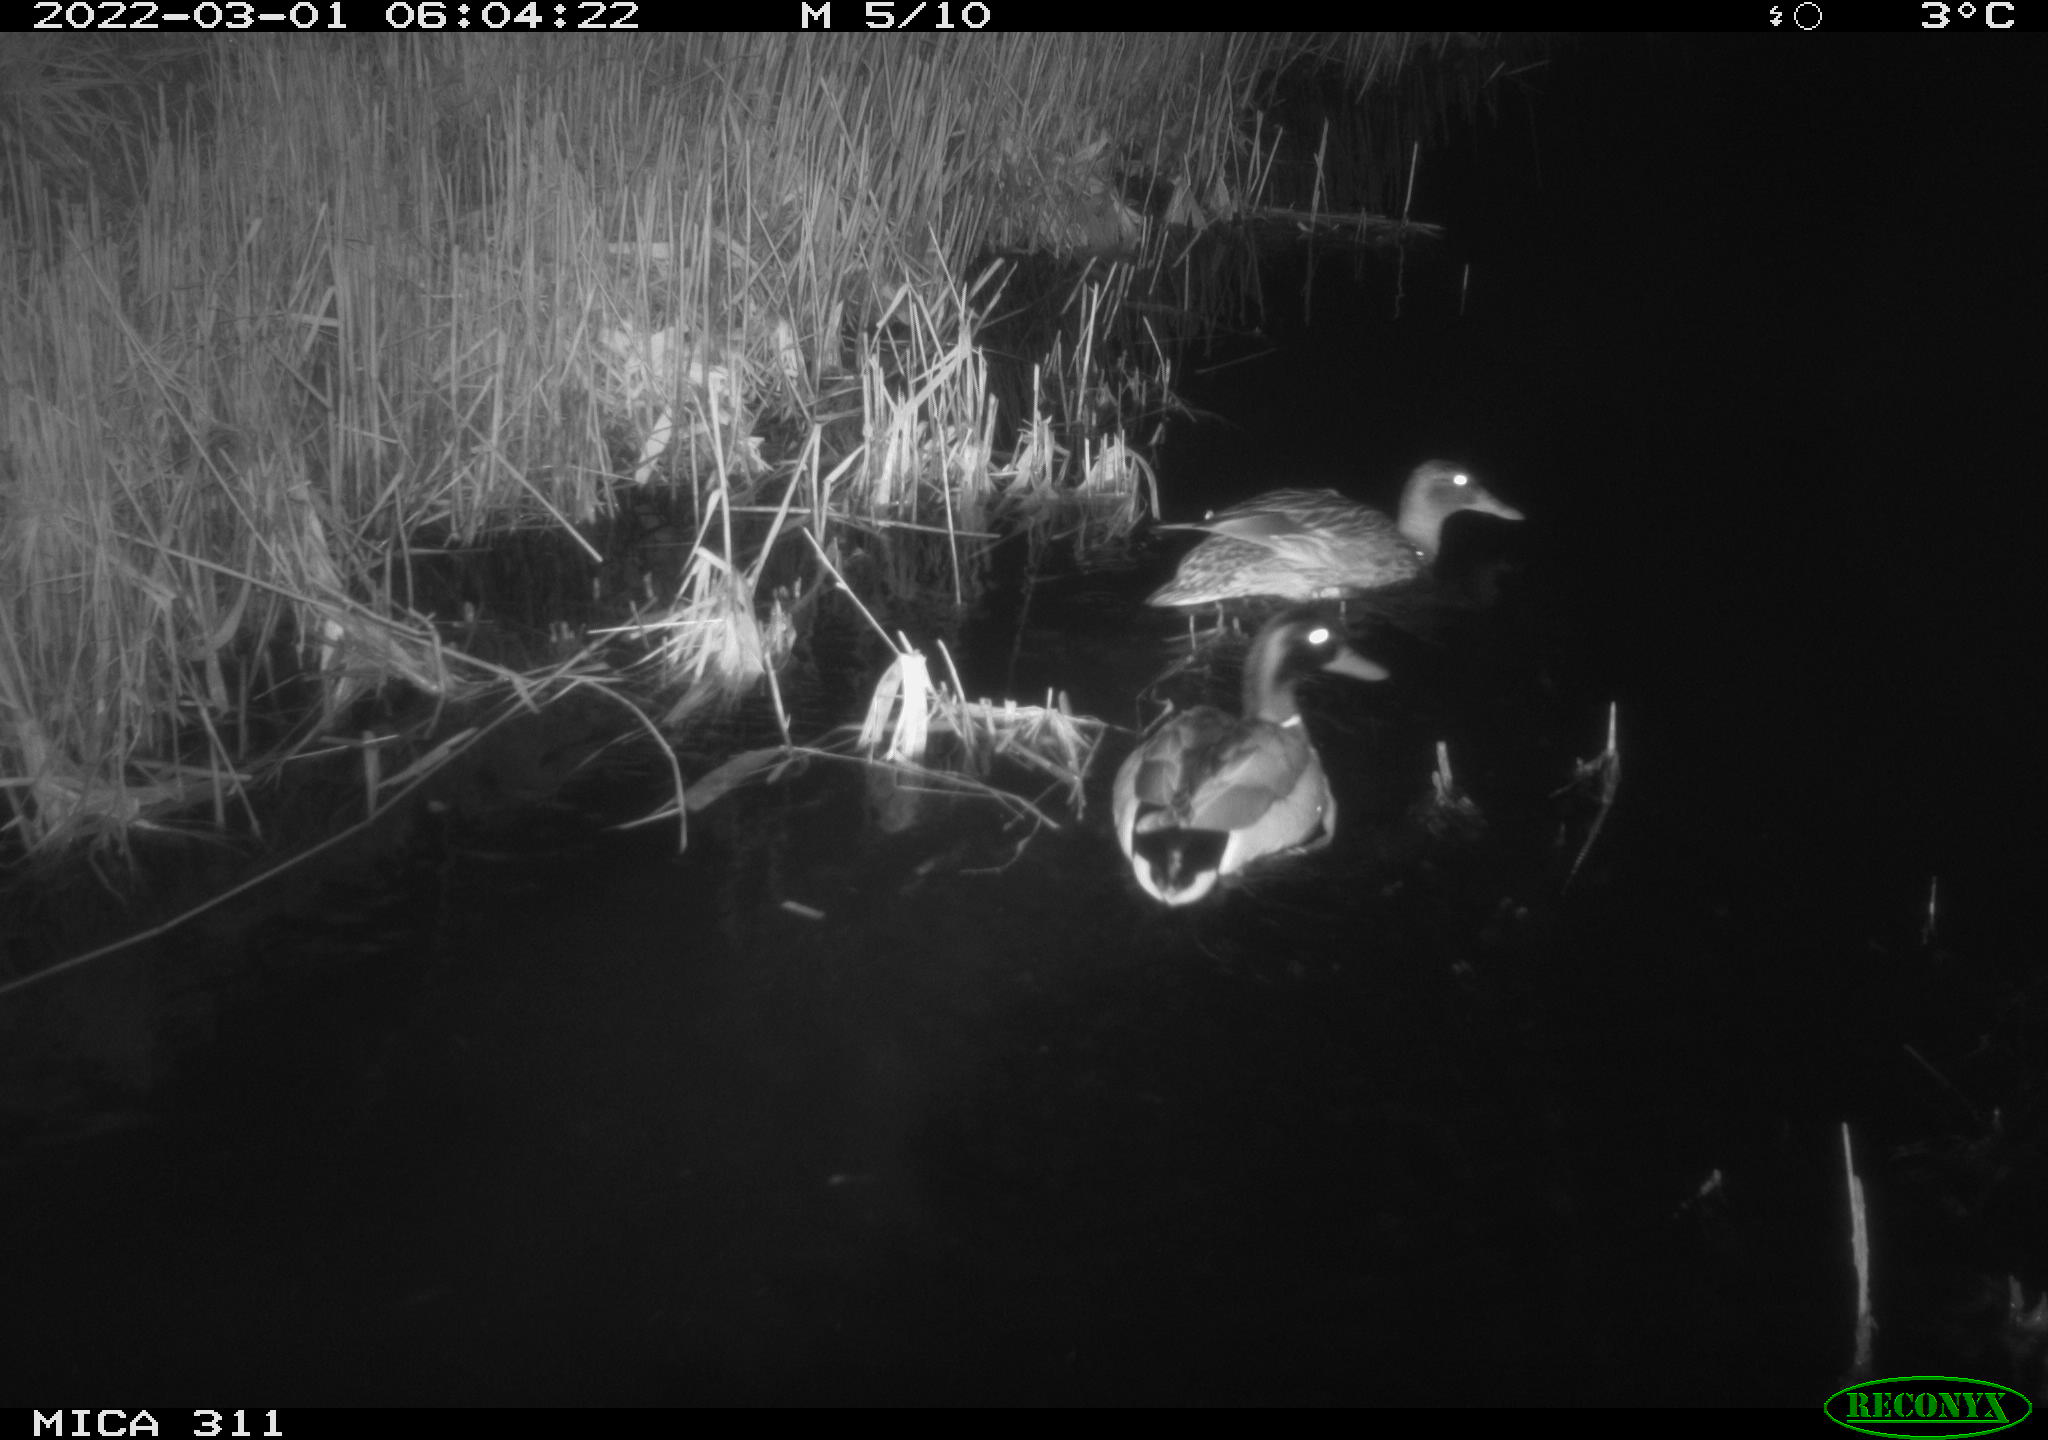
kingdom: Animalia
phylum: Chordata
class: Aves
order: Anseriformes
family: Anatidae
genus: Anas
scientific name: Anas
